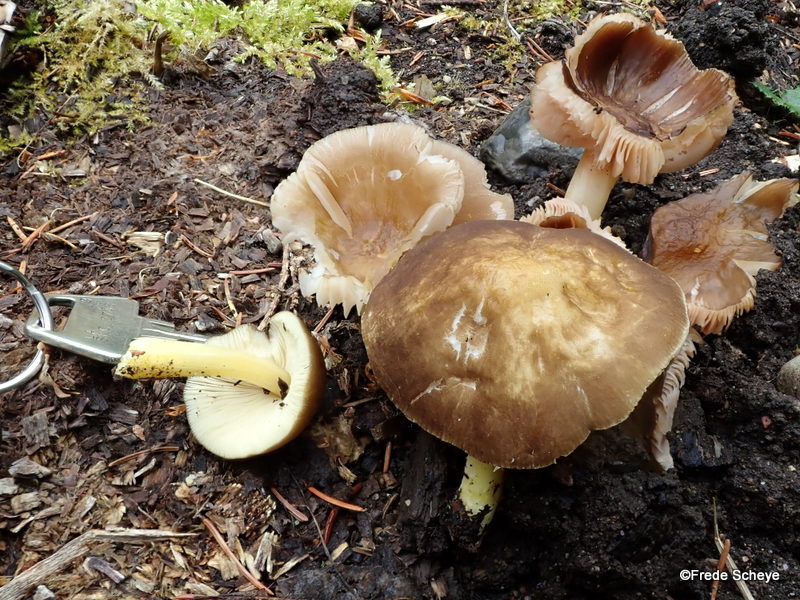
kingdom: Fungi
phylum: Basidiomycota
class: Agaricomycetes
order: Agaricales
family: Pluteaceae
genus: Pluteus
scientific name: Pluteus romellii
